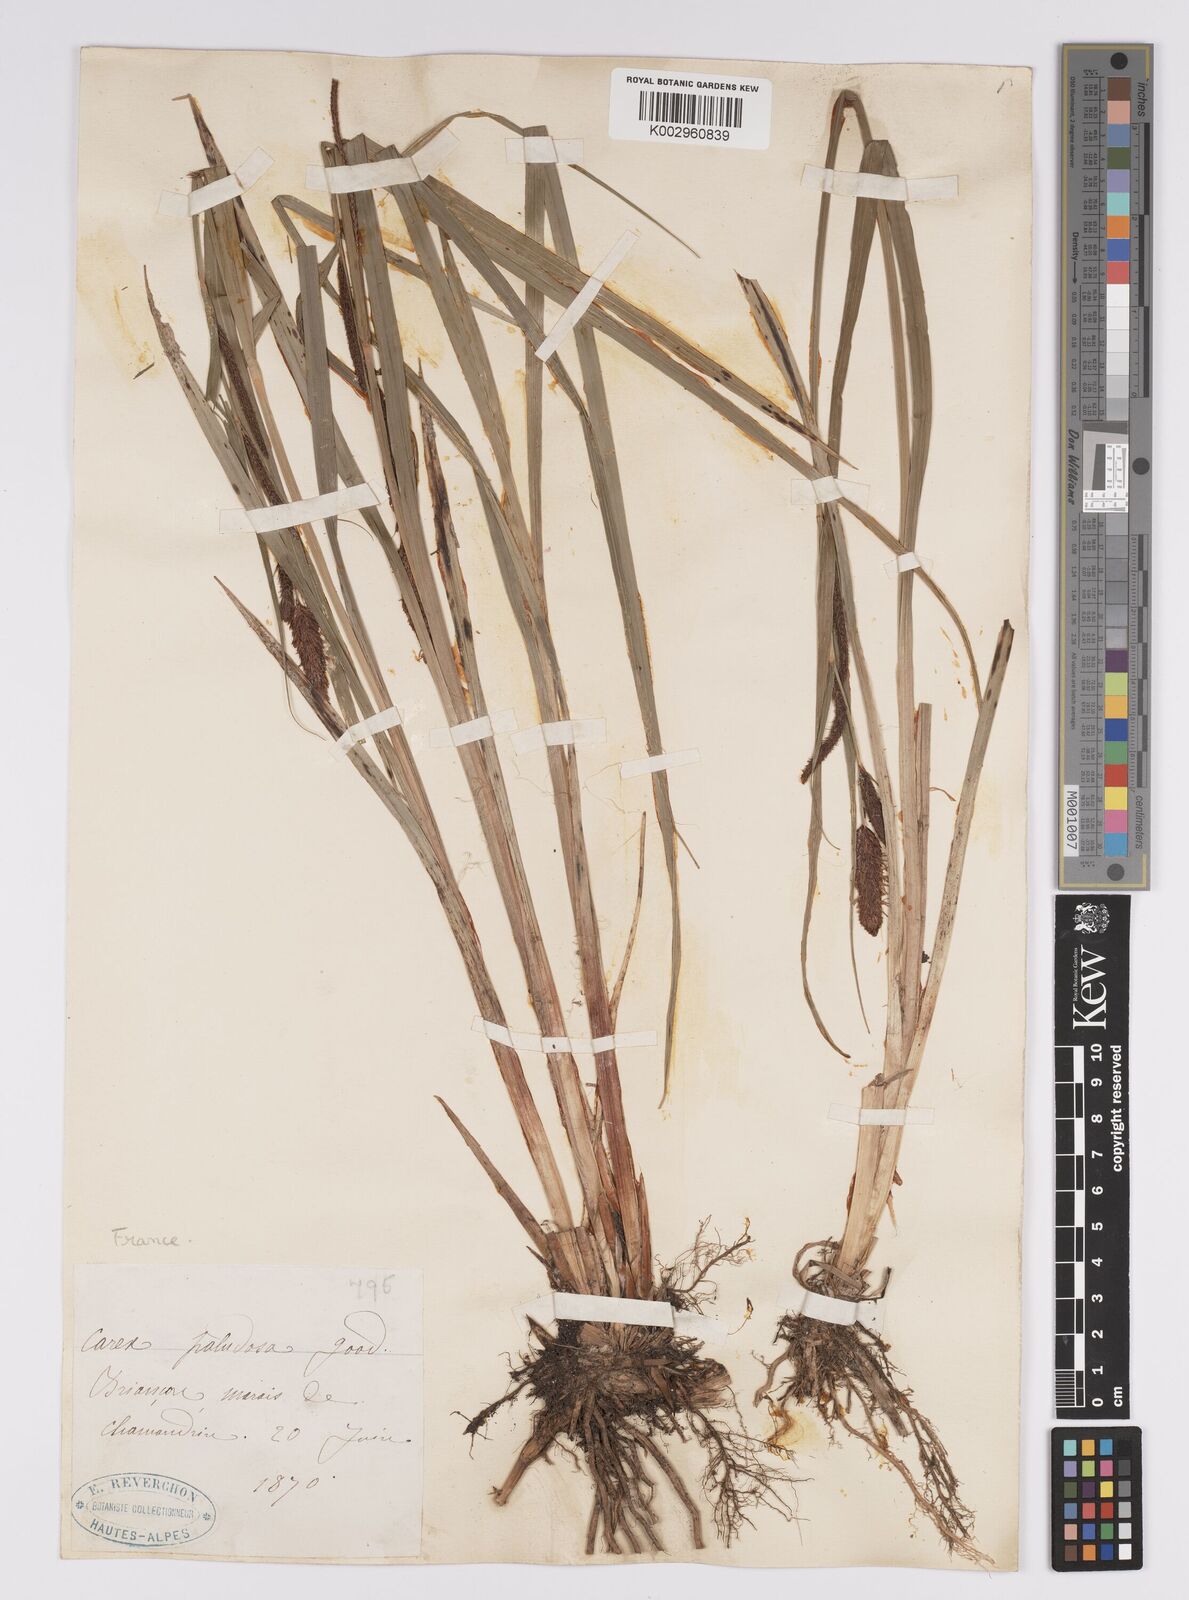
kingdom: Plantae
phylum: Tracheophyta
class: Liliopsida
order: Poales
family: Cyperaceae
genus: Carex
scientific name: Carex acutiformis
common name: Lesser pond-sedge
